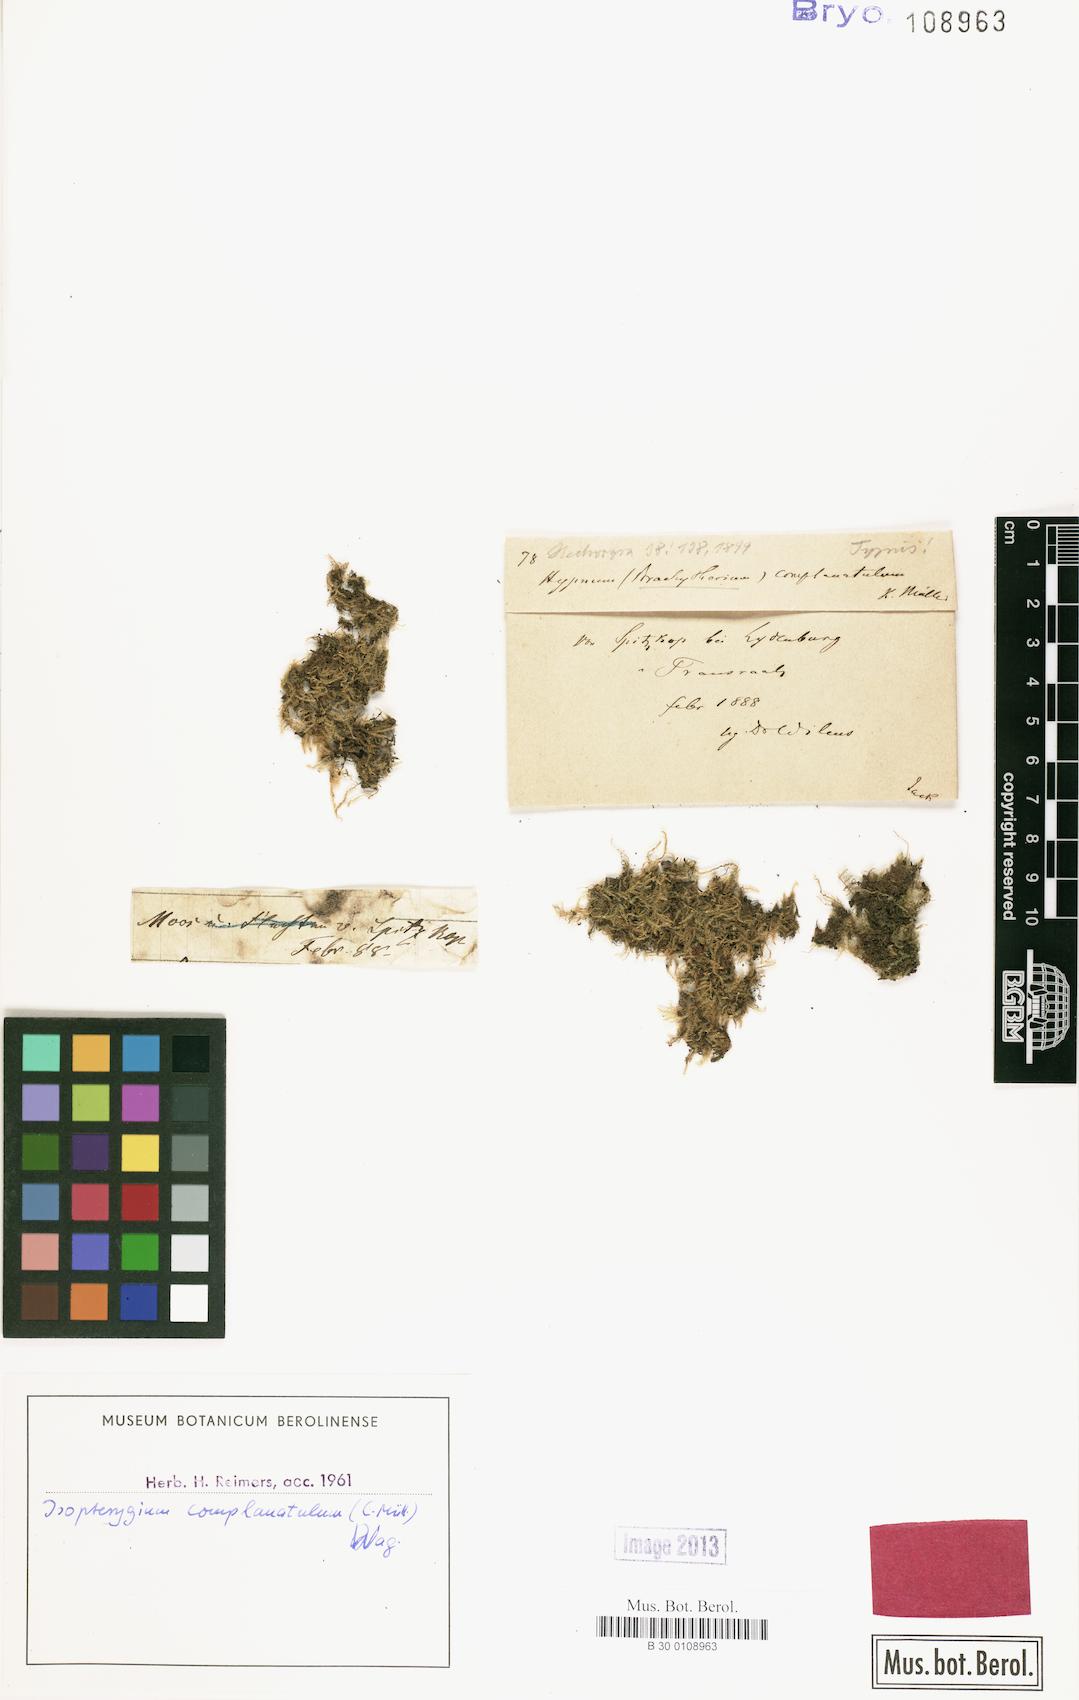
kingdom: Plantae
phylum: Bryophyta
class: Bryopsida
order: Hypnales
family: Pylaisiadelphaceae
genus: Isopterygium
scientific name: Isopterygium complanatulum
